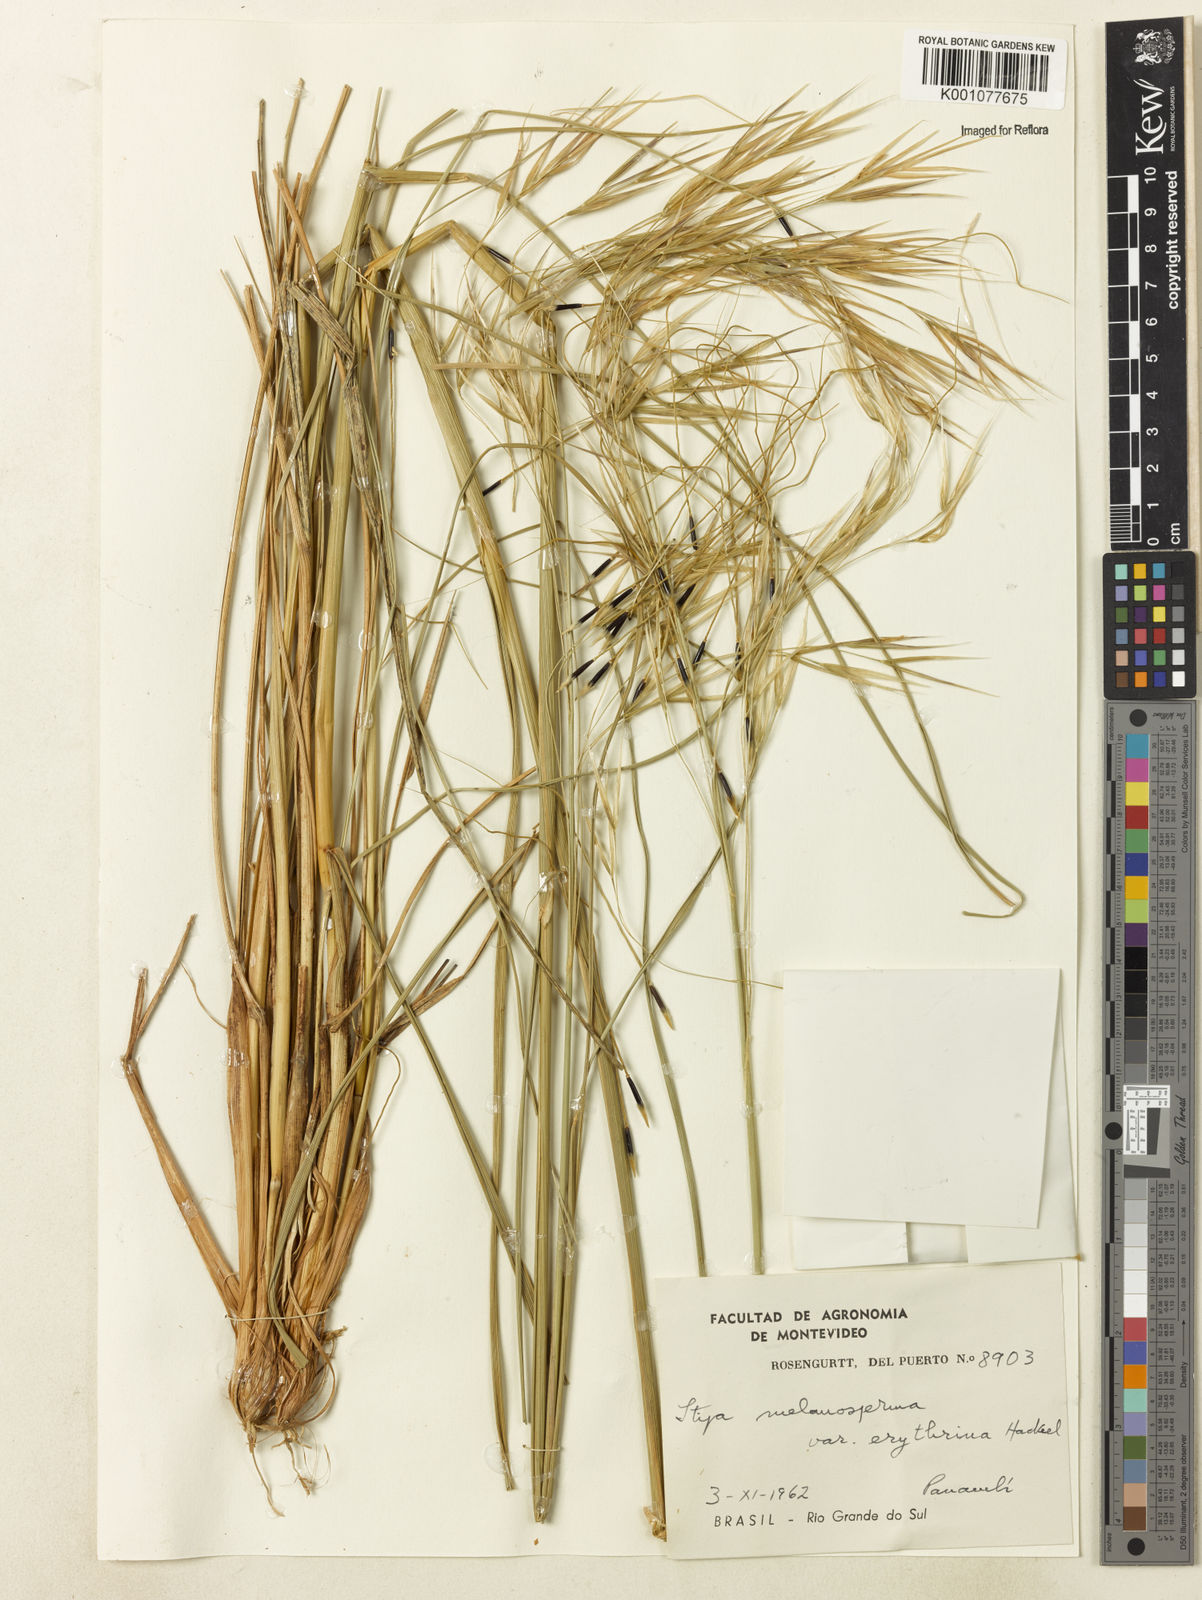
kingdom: Plantae
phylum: Tracheophyta
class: Liliopsida
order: Poales
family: Poaceae
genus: Nassella
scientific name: Nassella melanosperma
